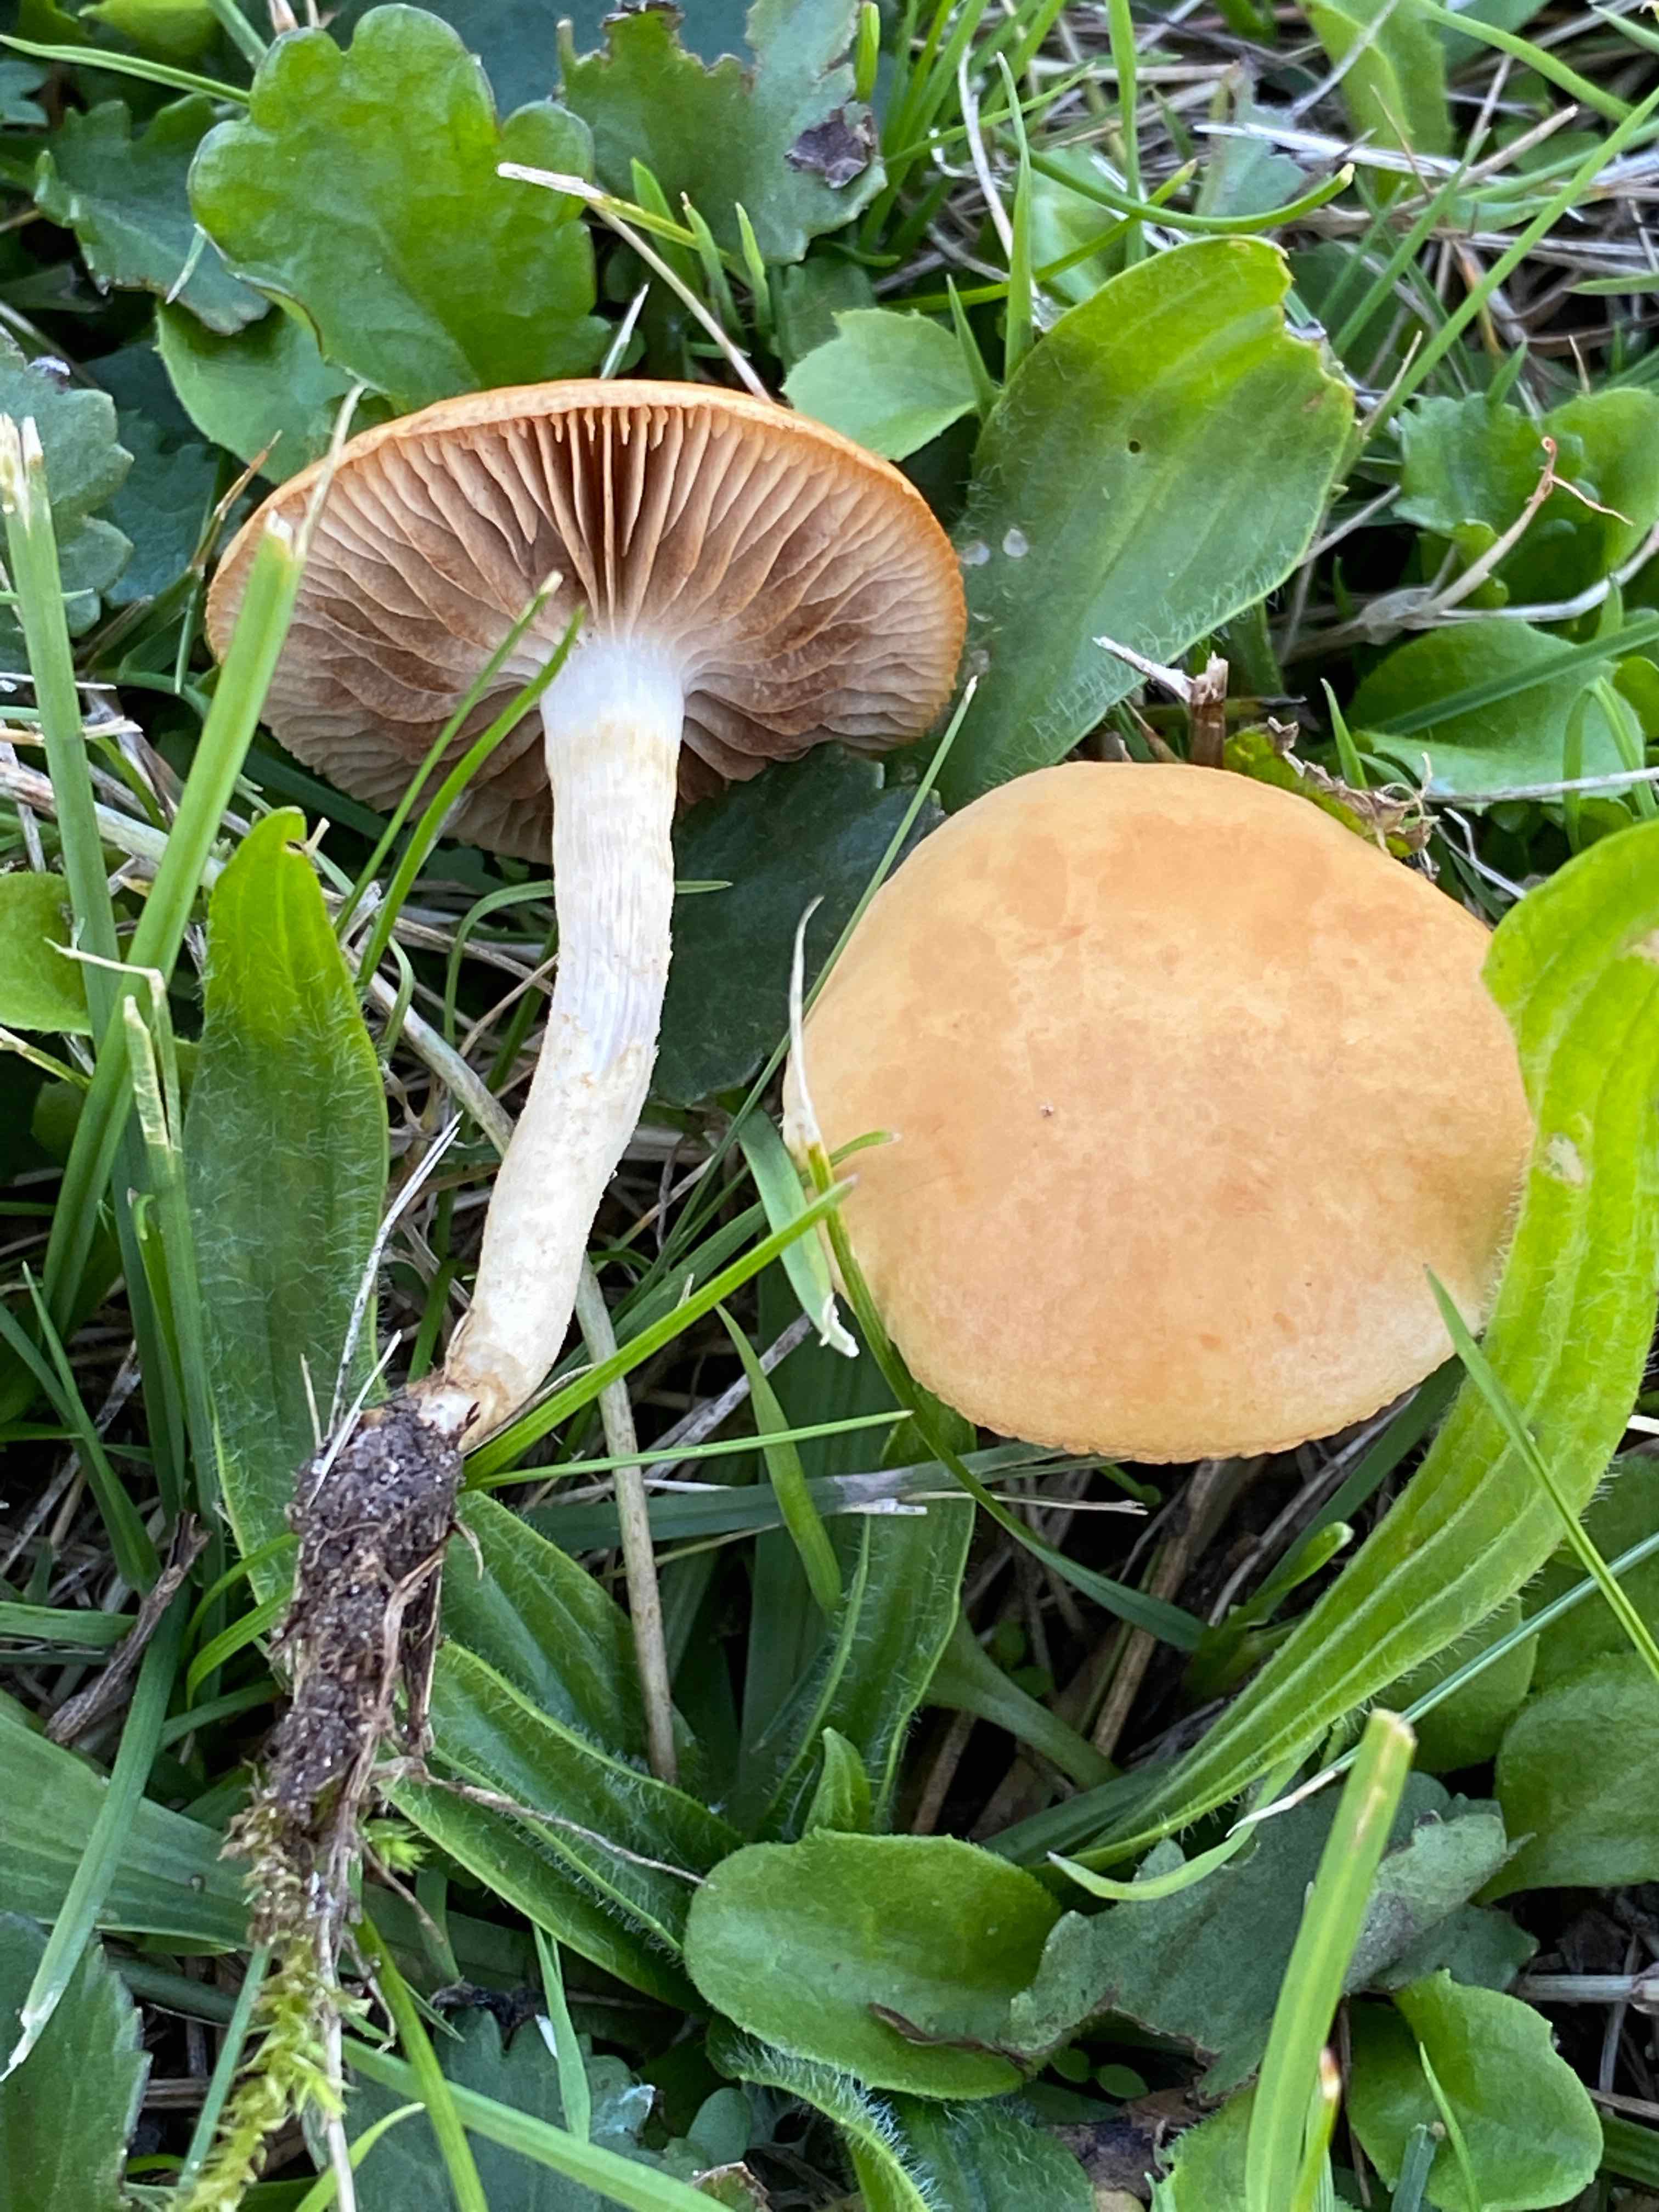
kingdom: Fungi
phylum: Basidiomycota
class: Agaricomycetes
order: Agaricales
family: Strophariaceae
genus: Agrocybe
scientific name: Agrocybe vervacti
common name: lav agerhat
